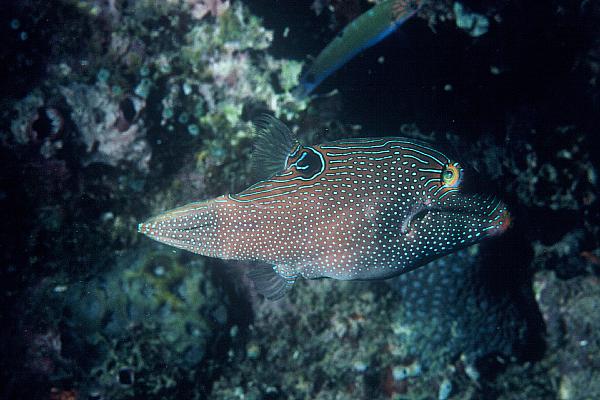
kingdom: Animalia
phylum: Chordata
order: Tetraodontiformes
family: Tetraodontidae
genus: Canthigaster
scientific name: Canthigaster papua
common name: False-eyed pufferfish
